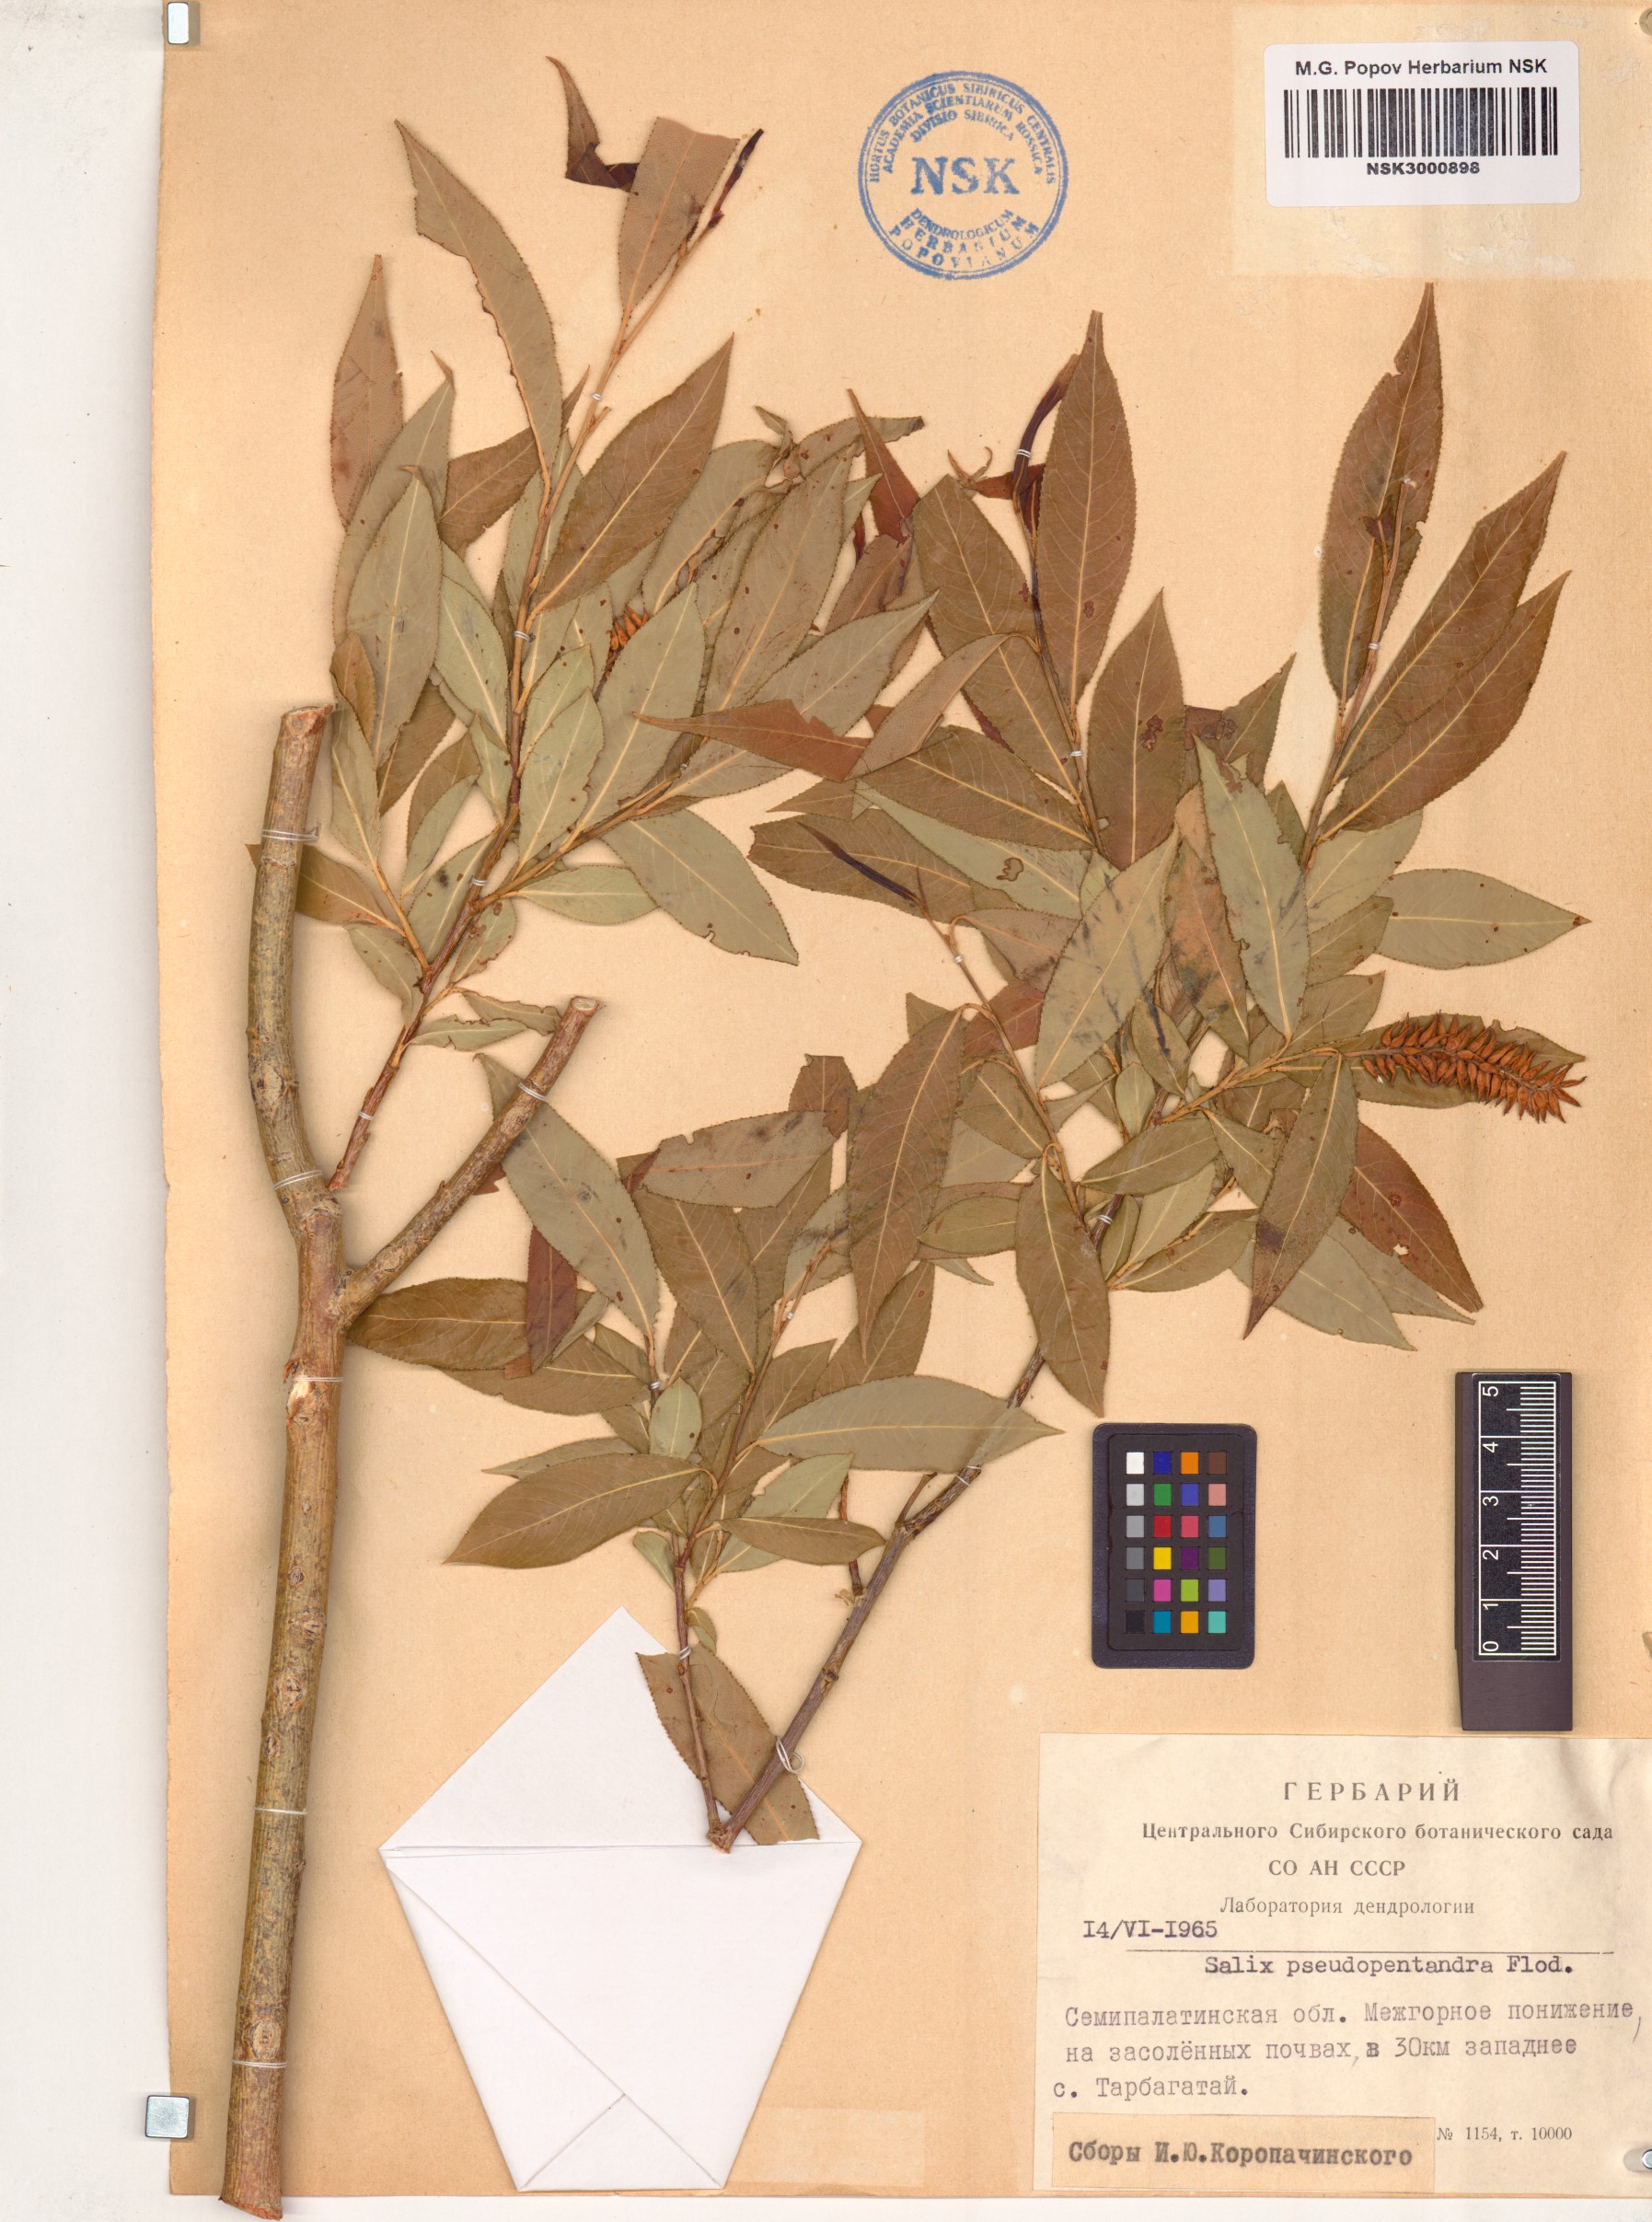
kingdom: Plantae
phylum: Tracheophyta
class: Magnoliopsida
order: Malpighiales
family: Salicaceae
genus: Salix
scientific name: Salix pseudopentandra
